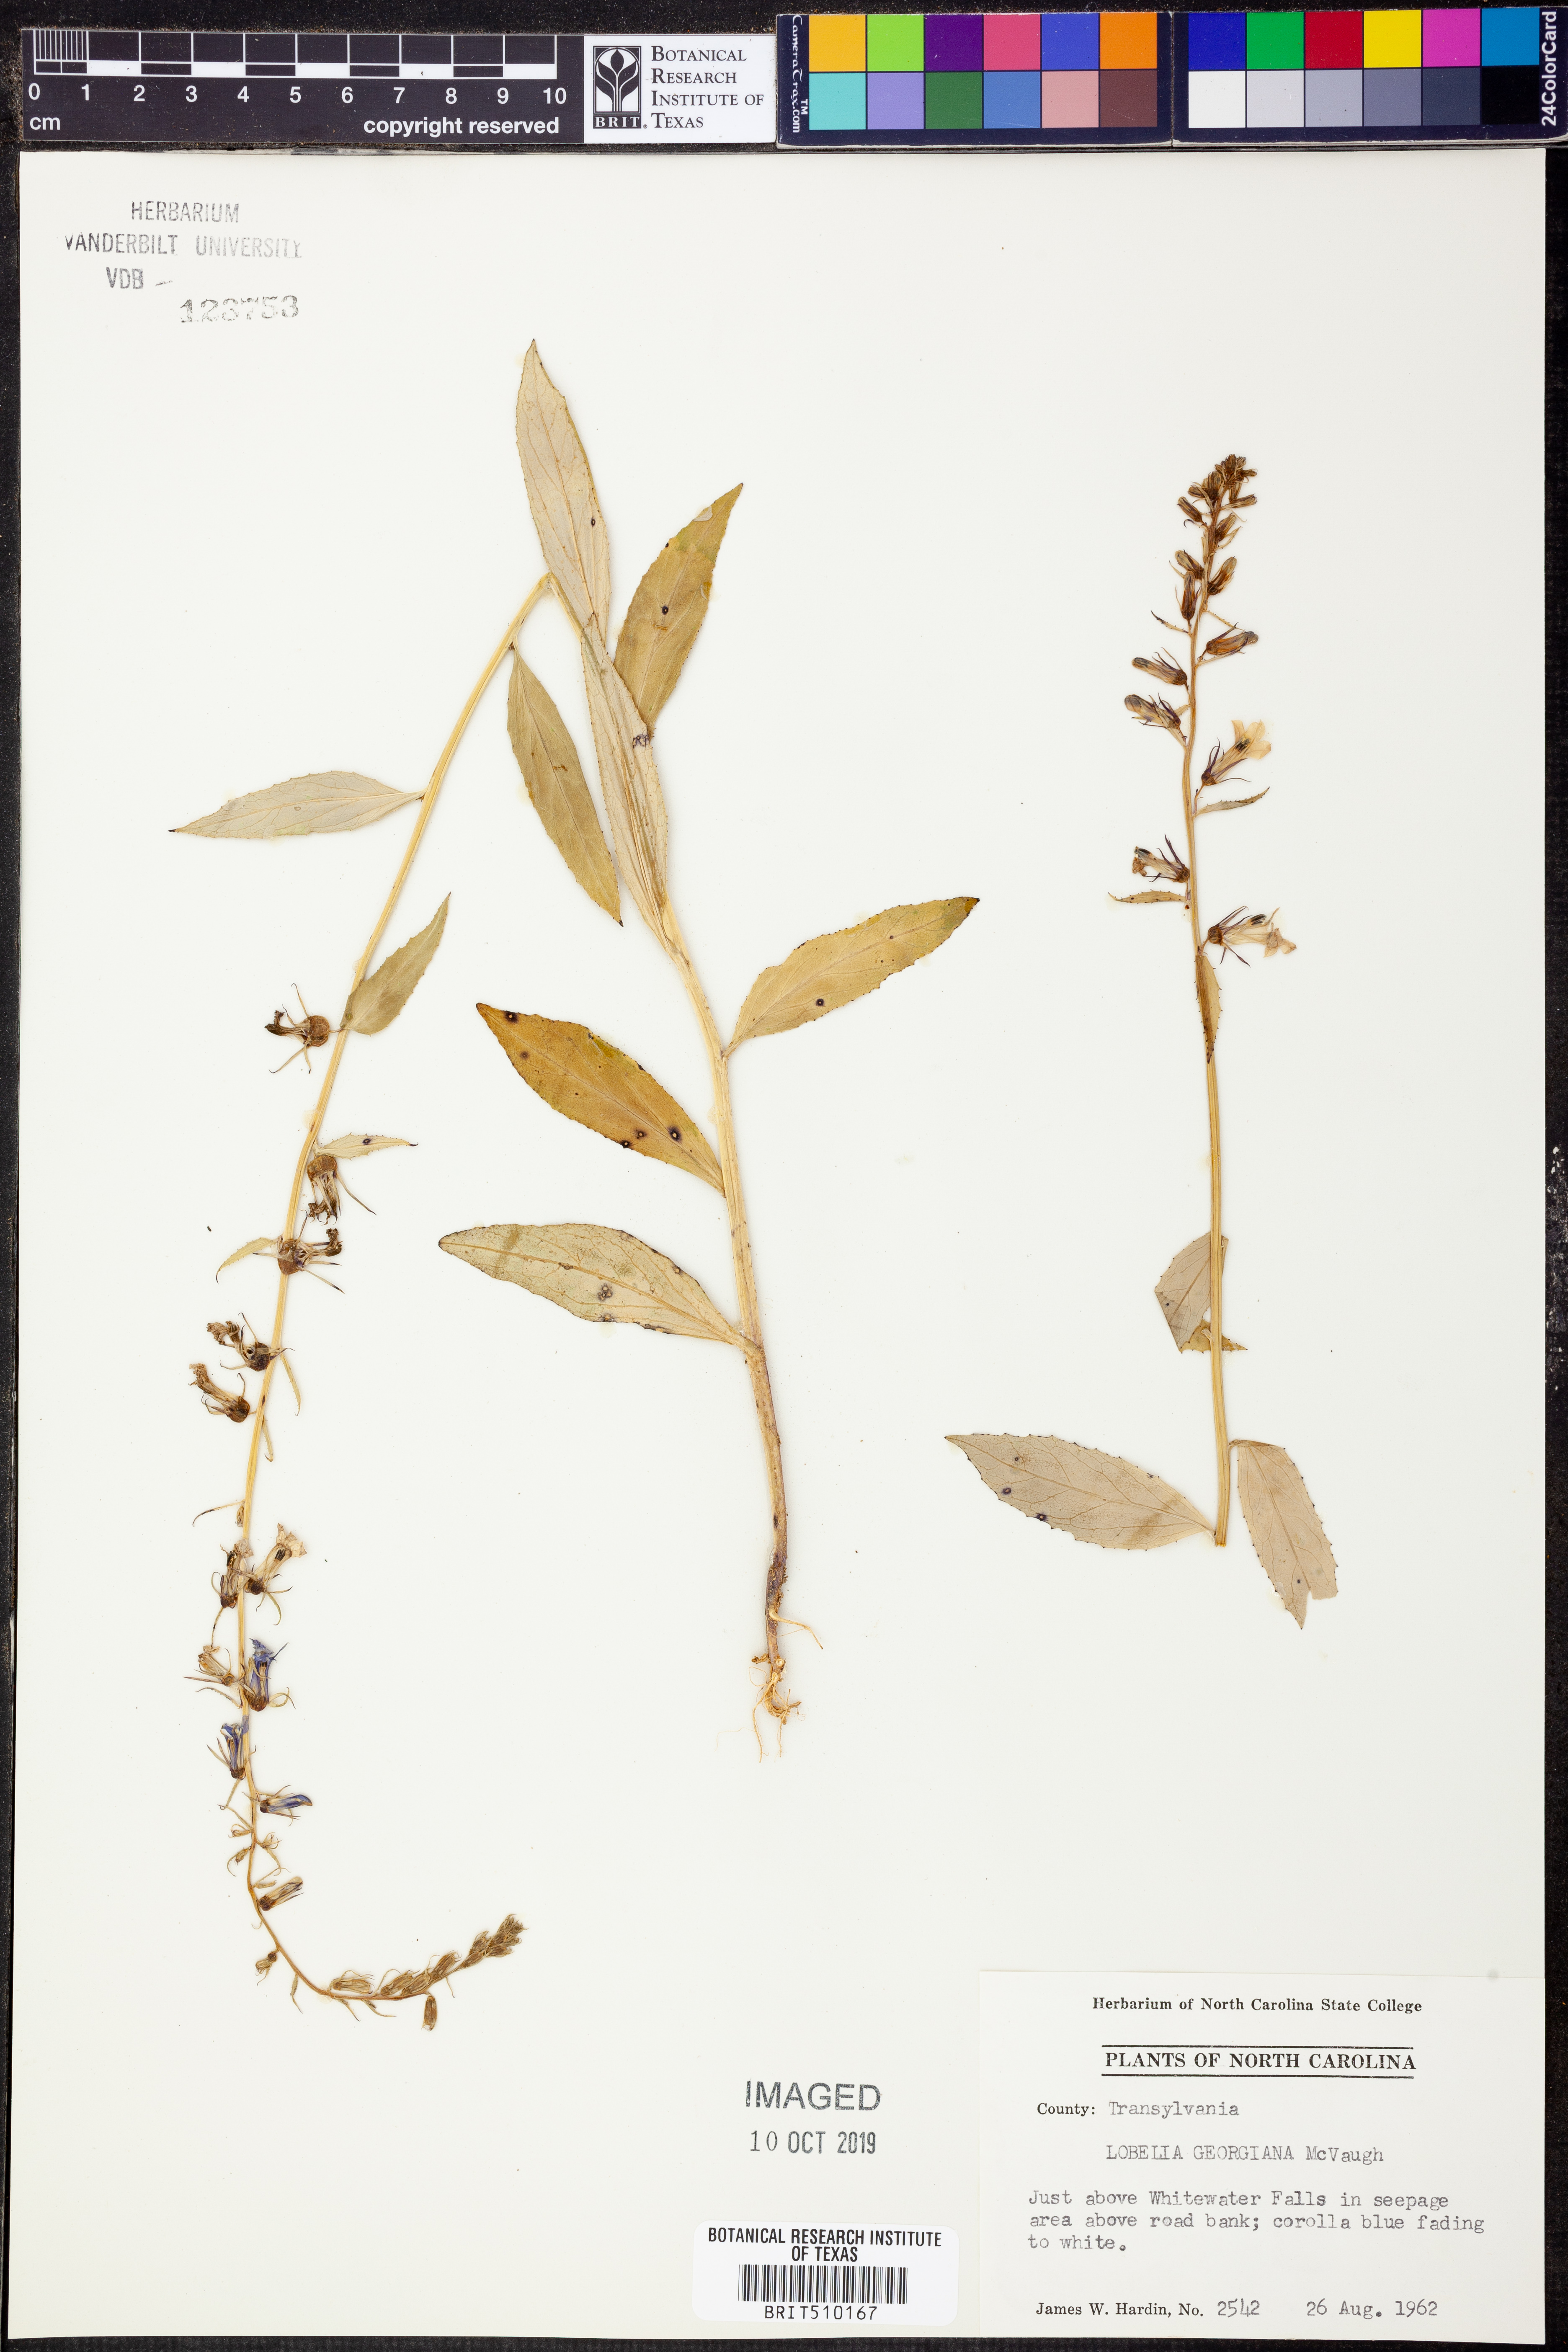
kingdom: Plantae
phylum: Tracheophyta
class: Magnoliopsida
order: Asterales
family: Campanulaceae
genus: Lobelia
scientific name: Lobelia georgiana
